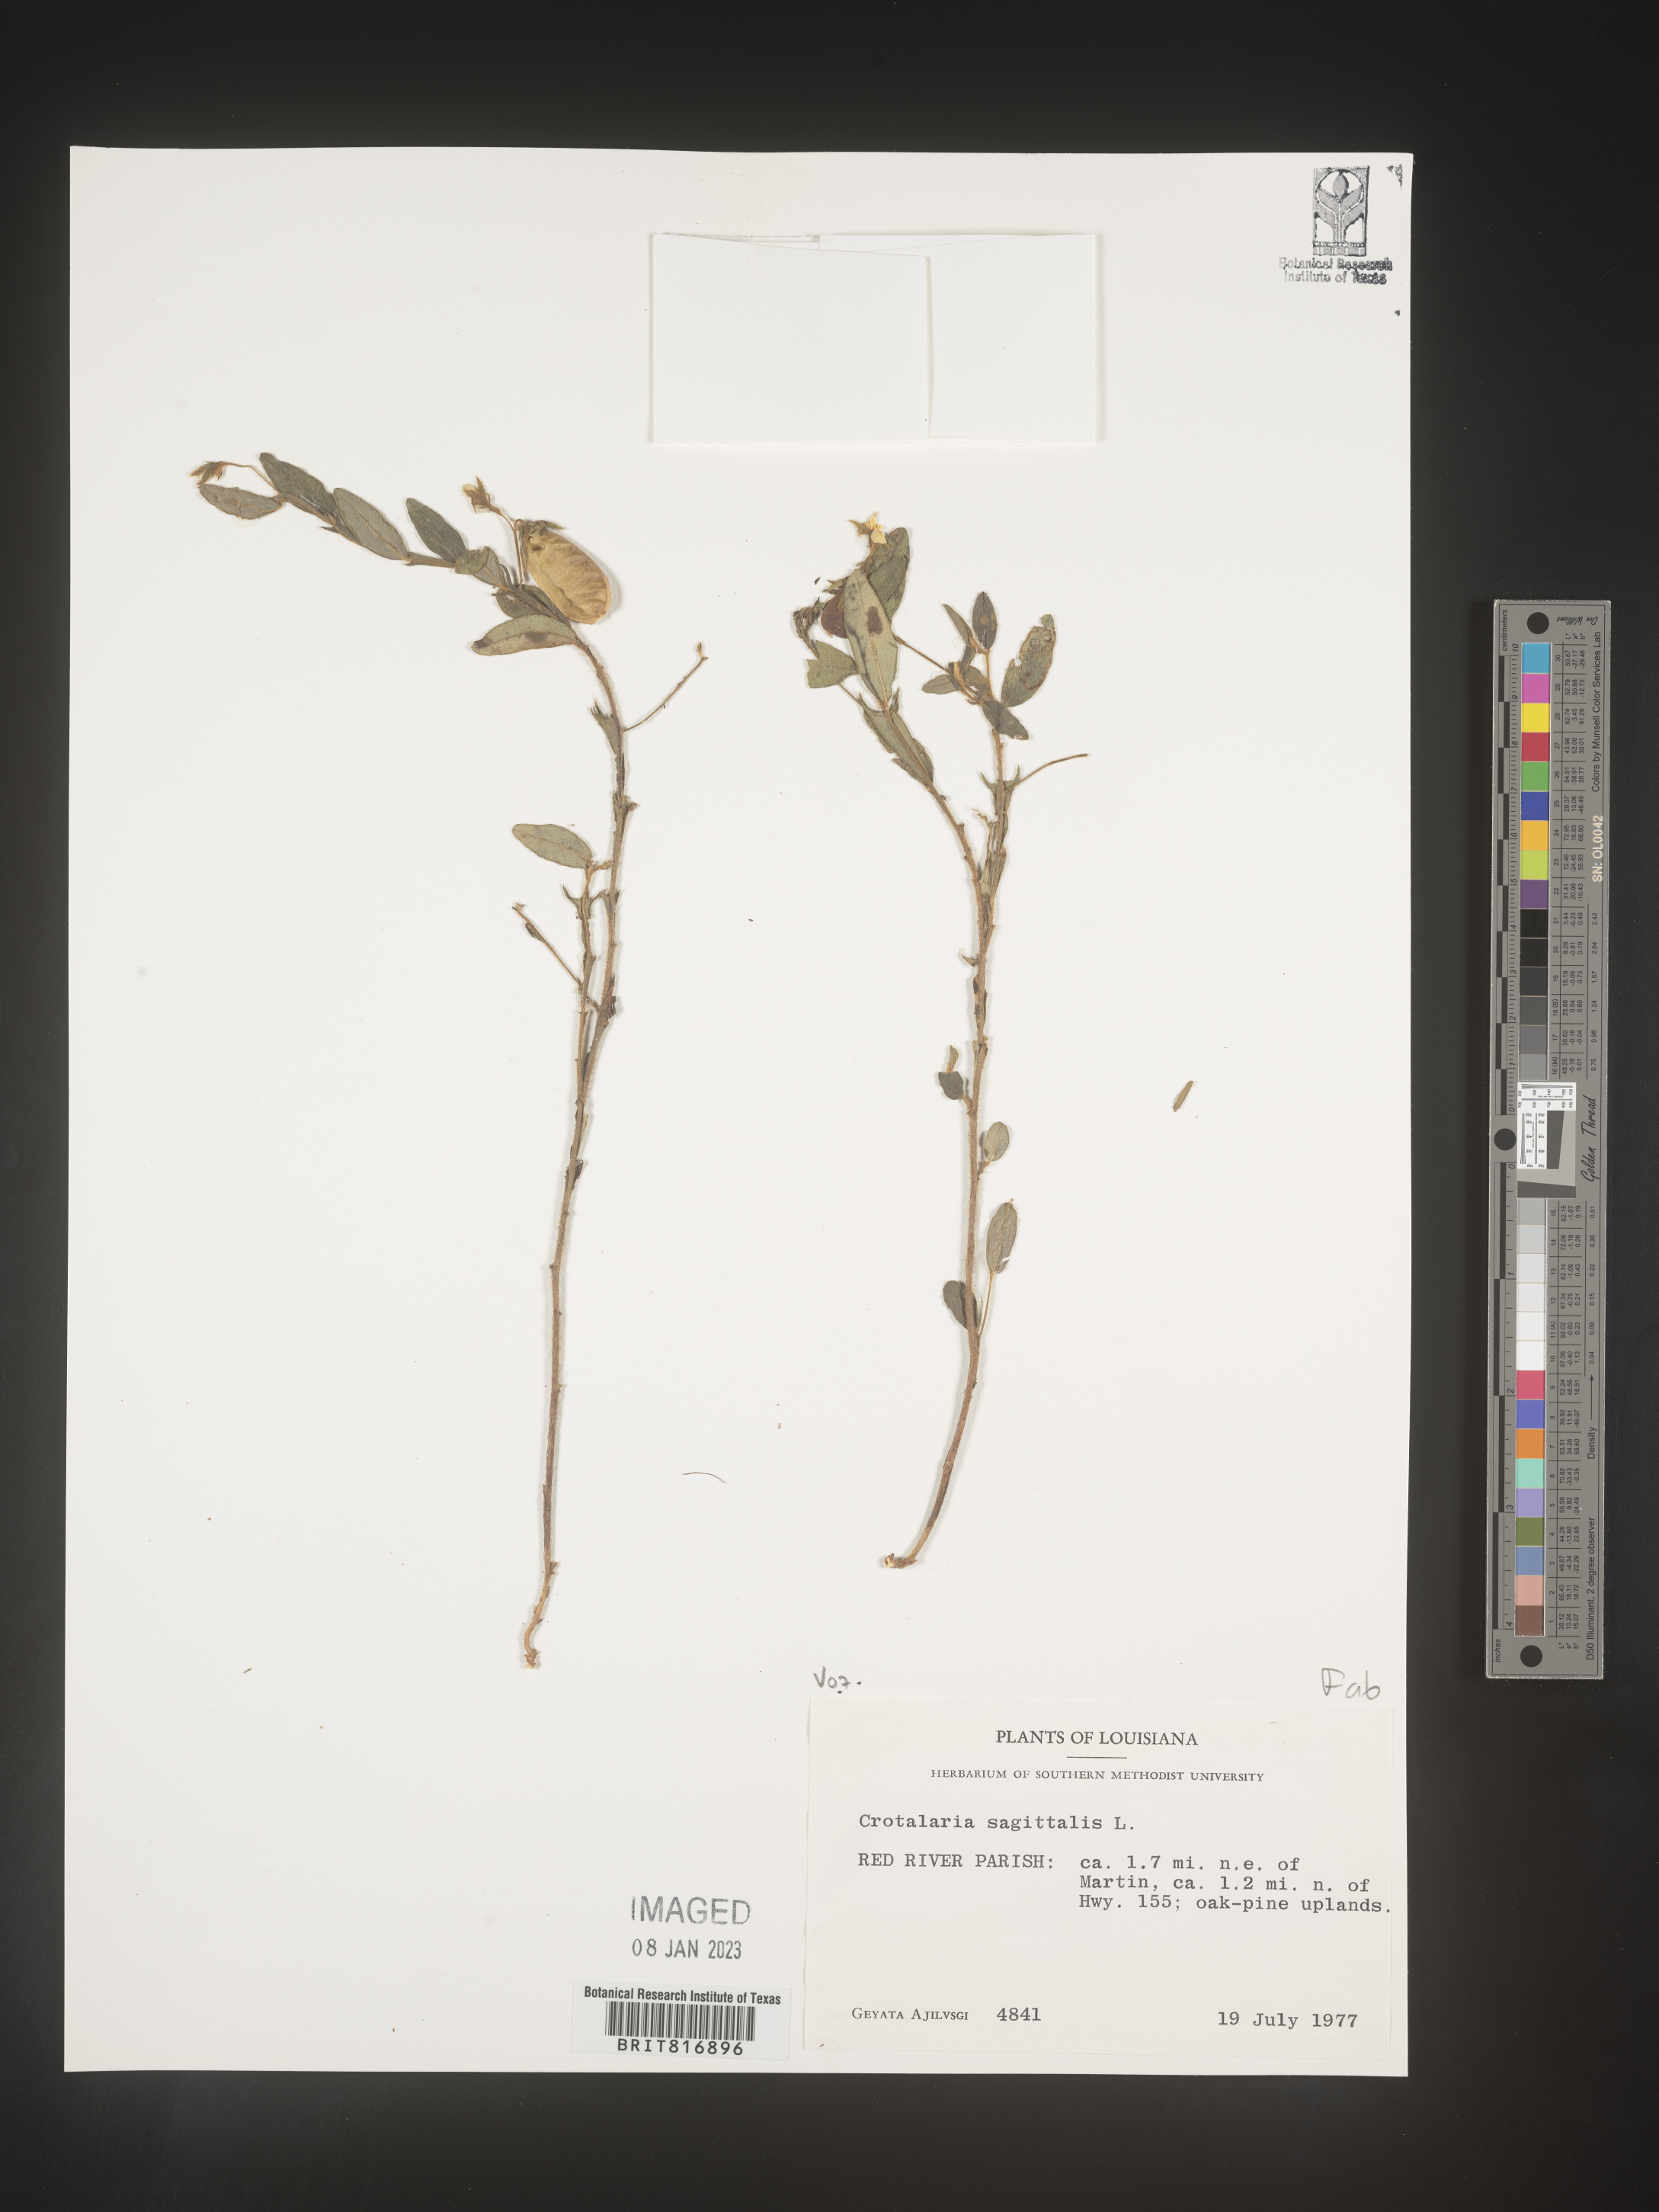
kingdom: Plantae
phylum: Tracheophyta
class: Magnoliopsida
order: Fabales
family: Fabaceae
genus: Crotalaria
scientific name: Crotalaria sagittalis
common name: Arrowhead rattlebox
